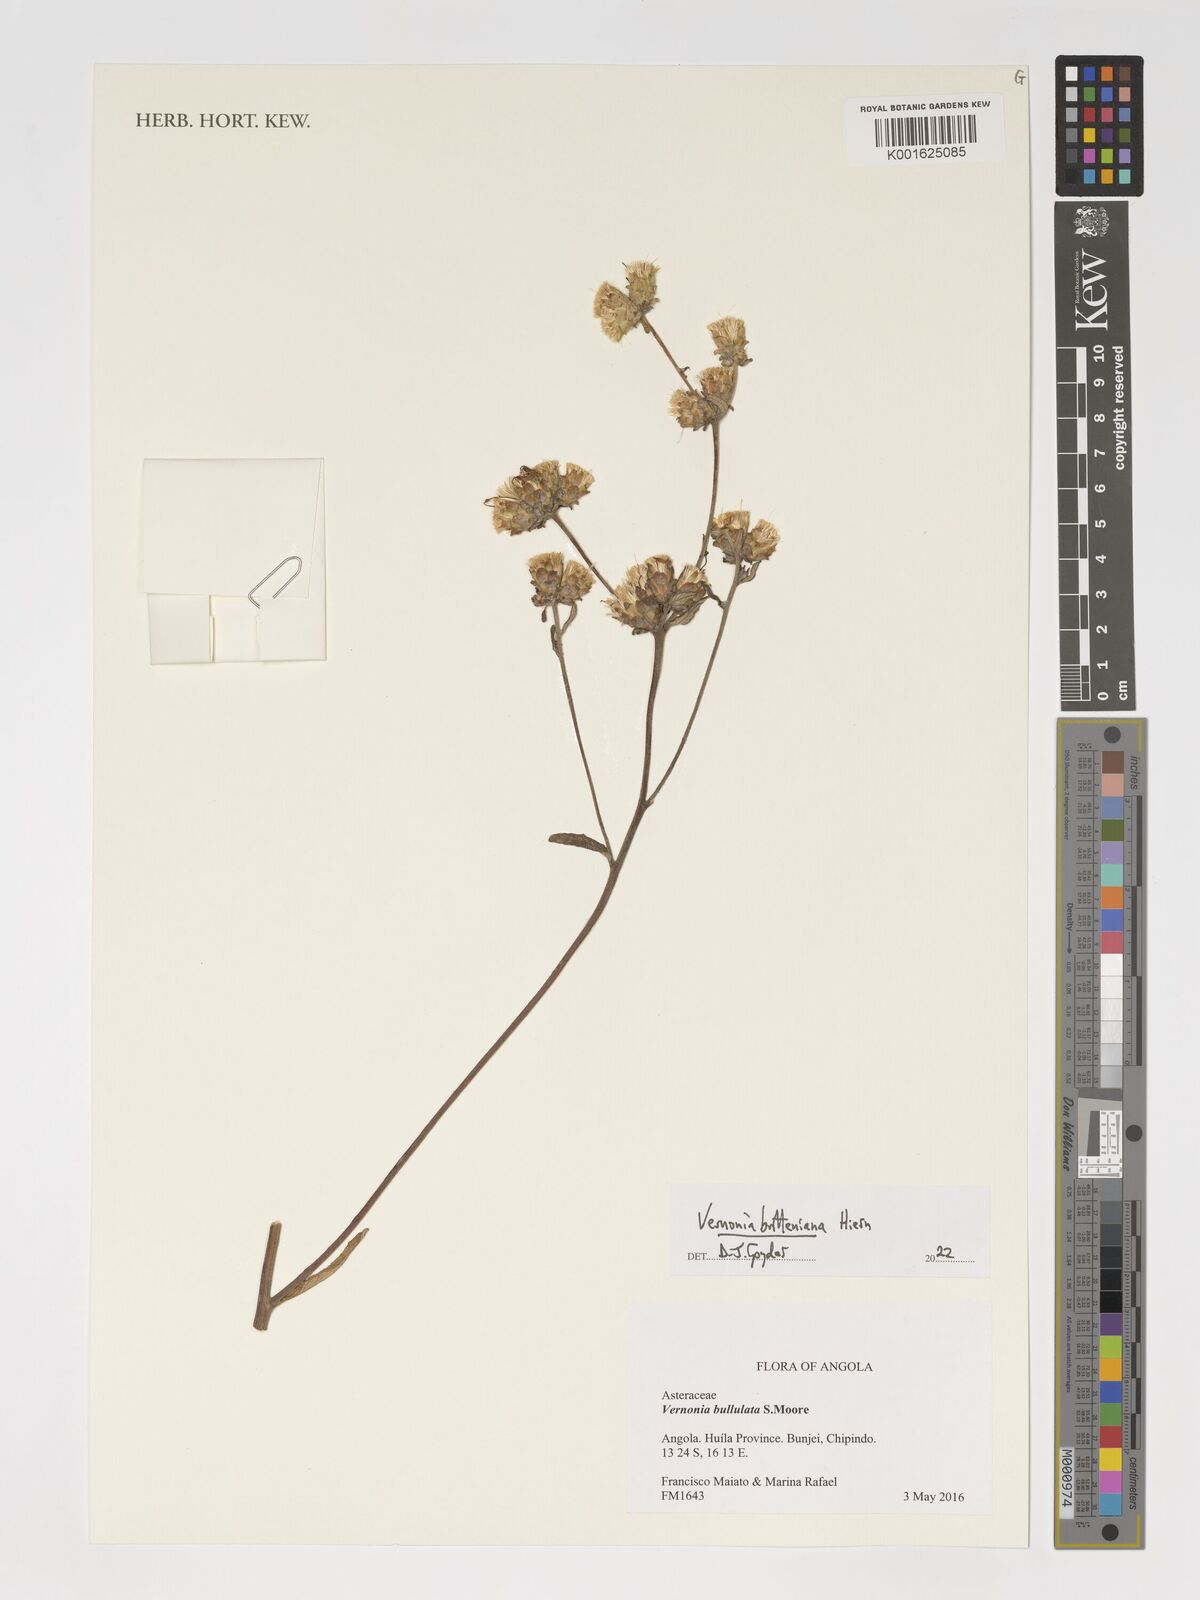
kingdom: Plantae
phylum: Tracheophyta
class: Magnoliopsida
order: Asterales
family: Asteraceae
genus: Vernonia
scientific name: Vernonia britteniana
